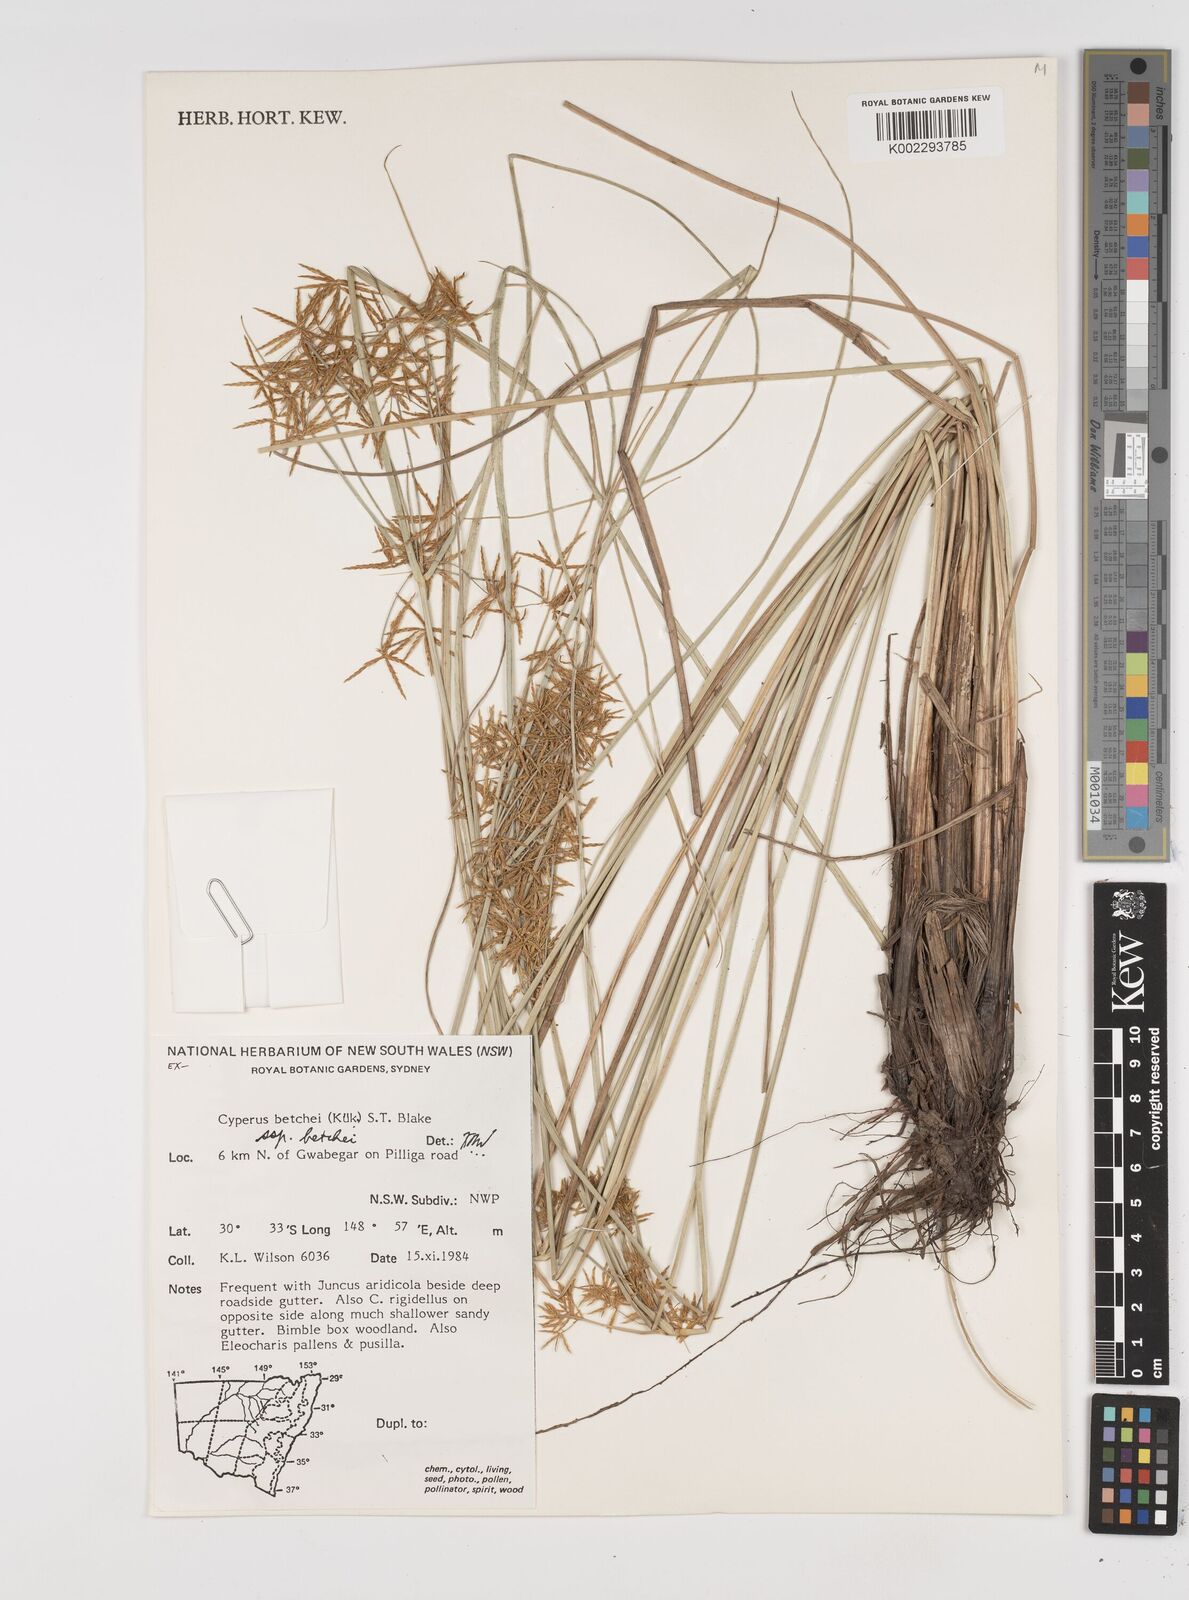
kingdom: Plantae
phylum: Tracheophyta
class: Liliopsida
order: Poales
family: Cyperaceae
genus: Cyperus
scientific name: Cyperus betchei
